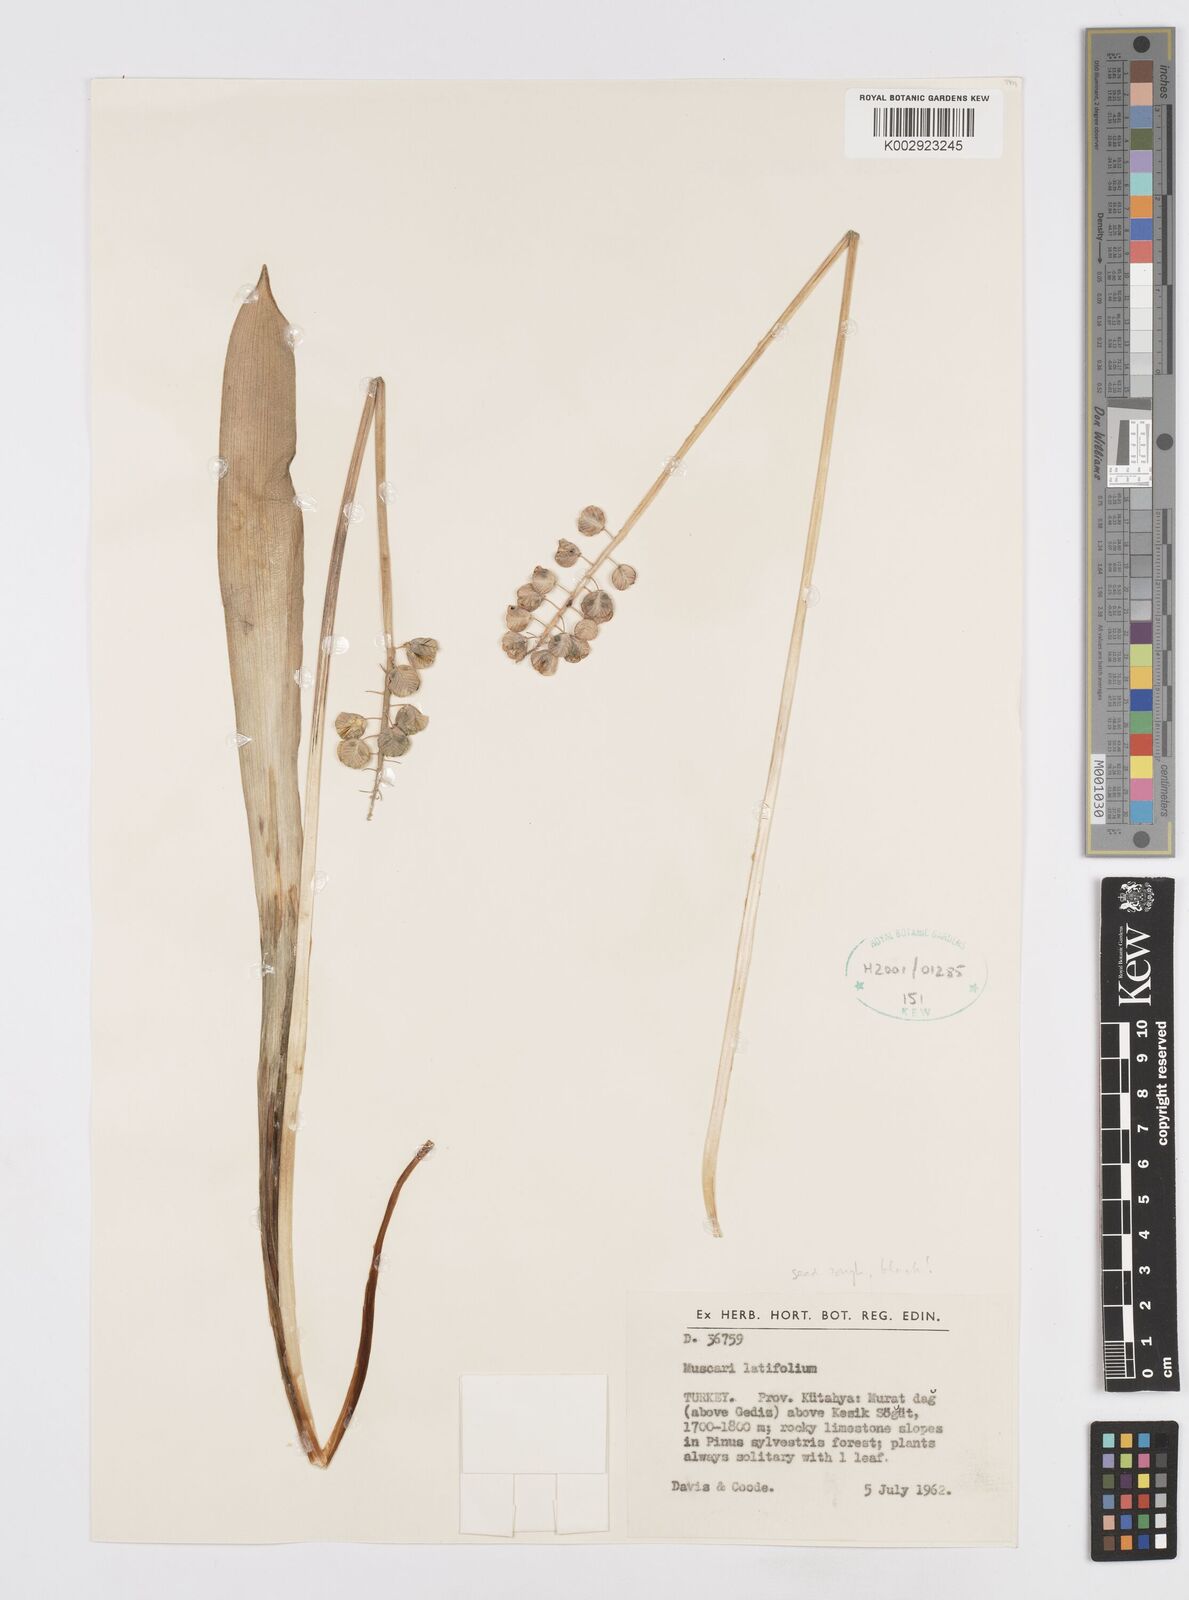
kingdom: Plantae
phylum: Tracheophyta
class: Liliopsida
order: Asparagales
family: Asparagaceae
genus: Muscari
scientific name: Muscari latifolium
